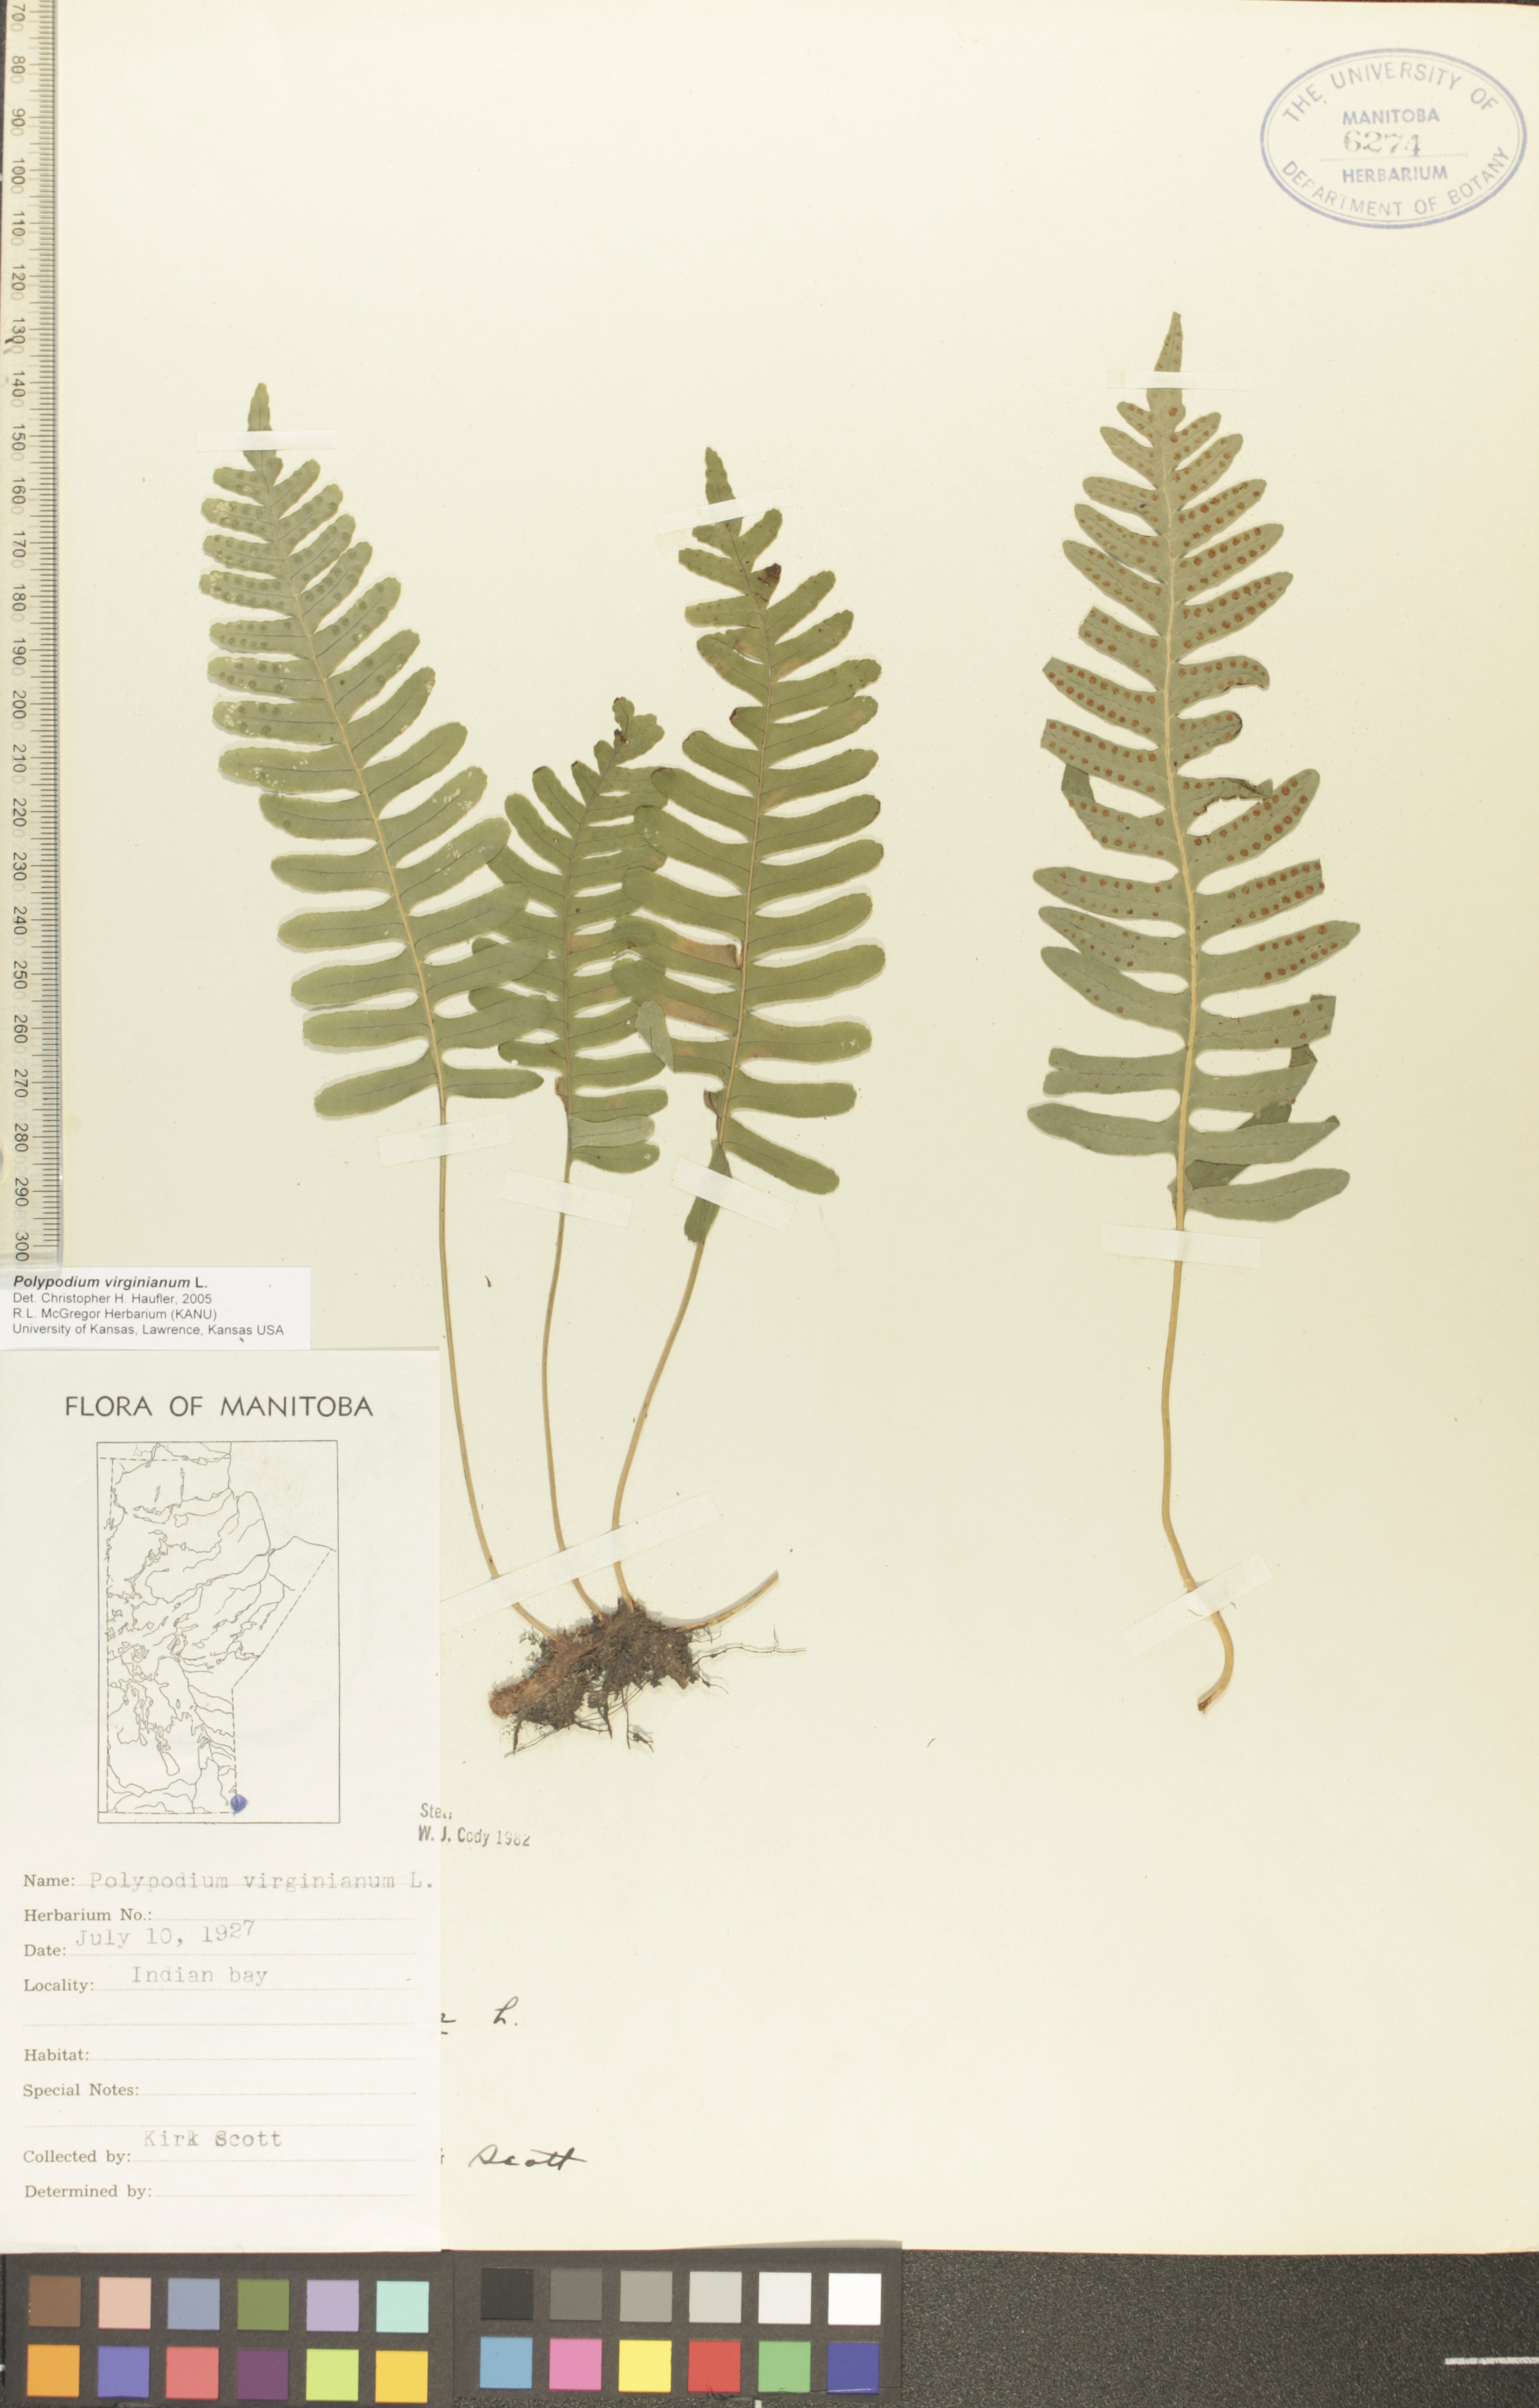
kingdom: Plantae
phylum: Tracheophyta
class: Polypodiopsida
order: Polypodiales
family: Polypodiaceae
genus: Polypodium
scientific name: Polypodium virginianum
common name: American wall fern
